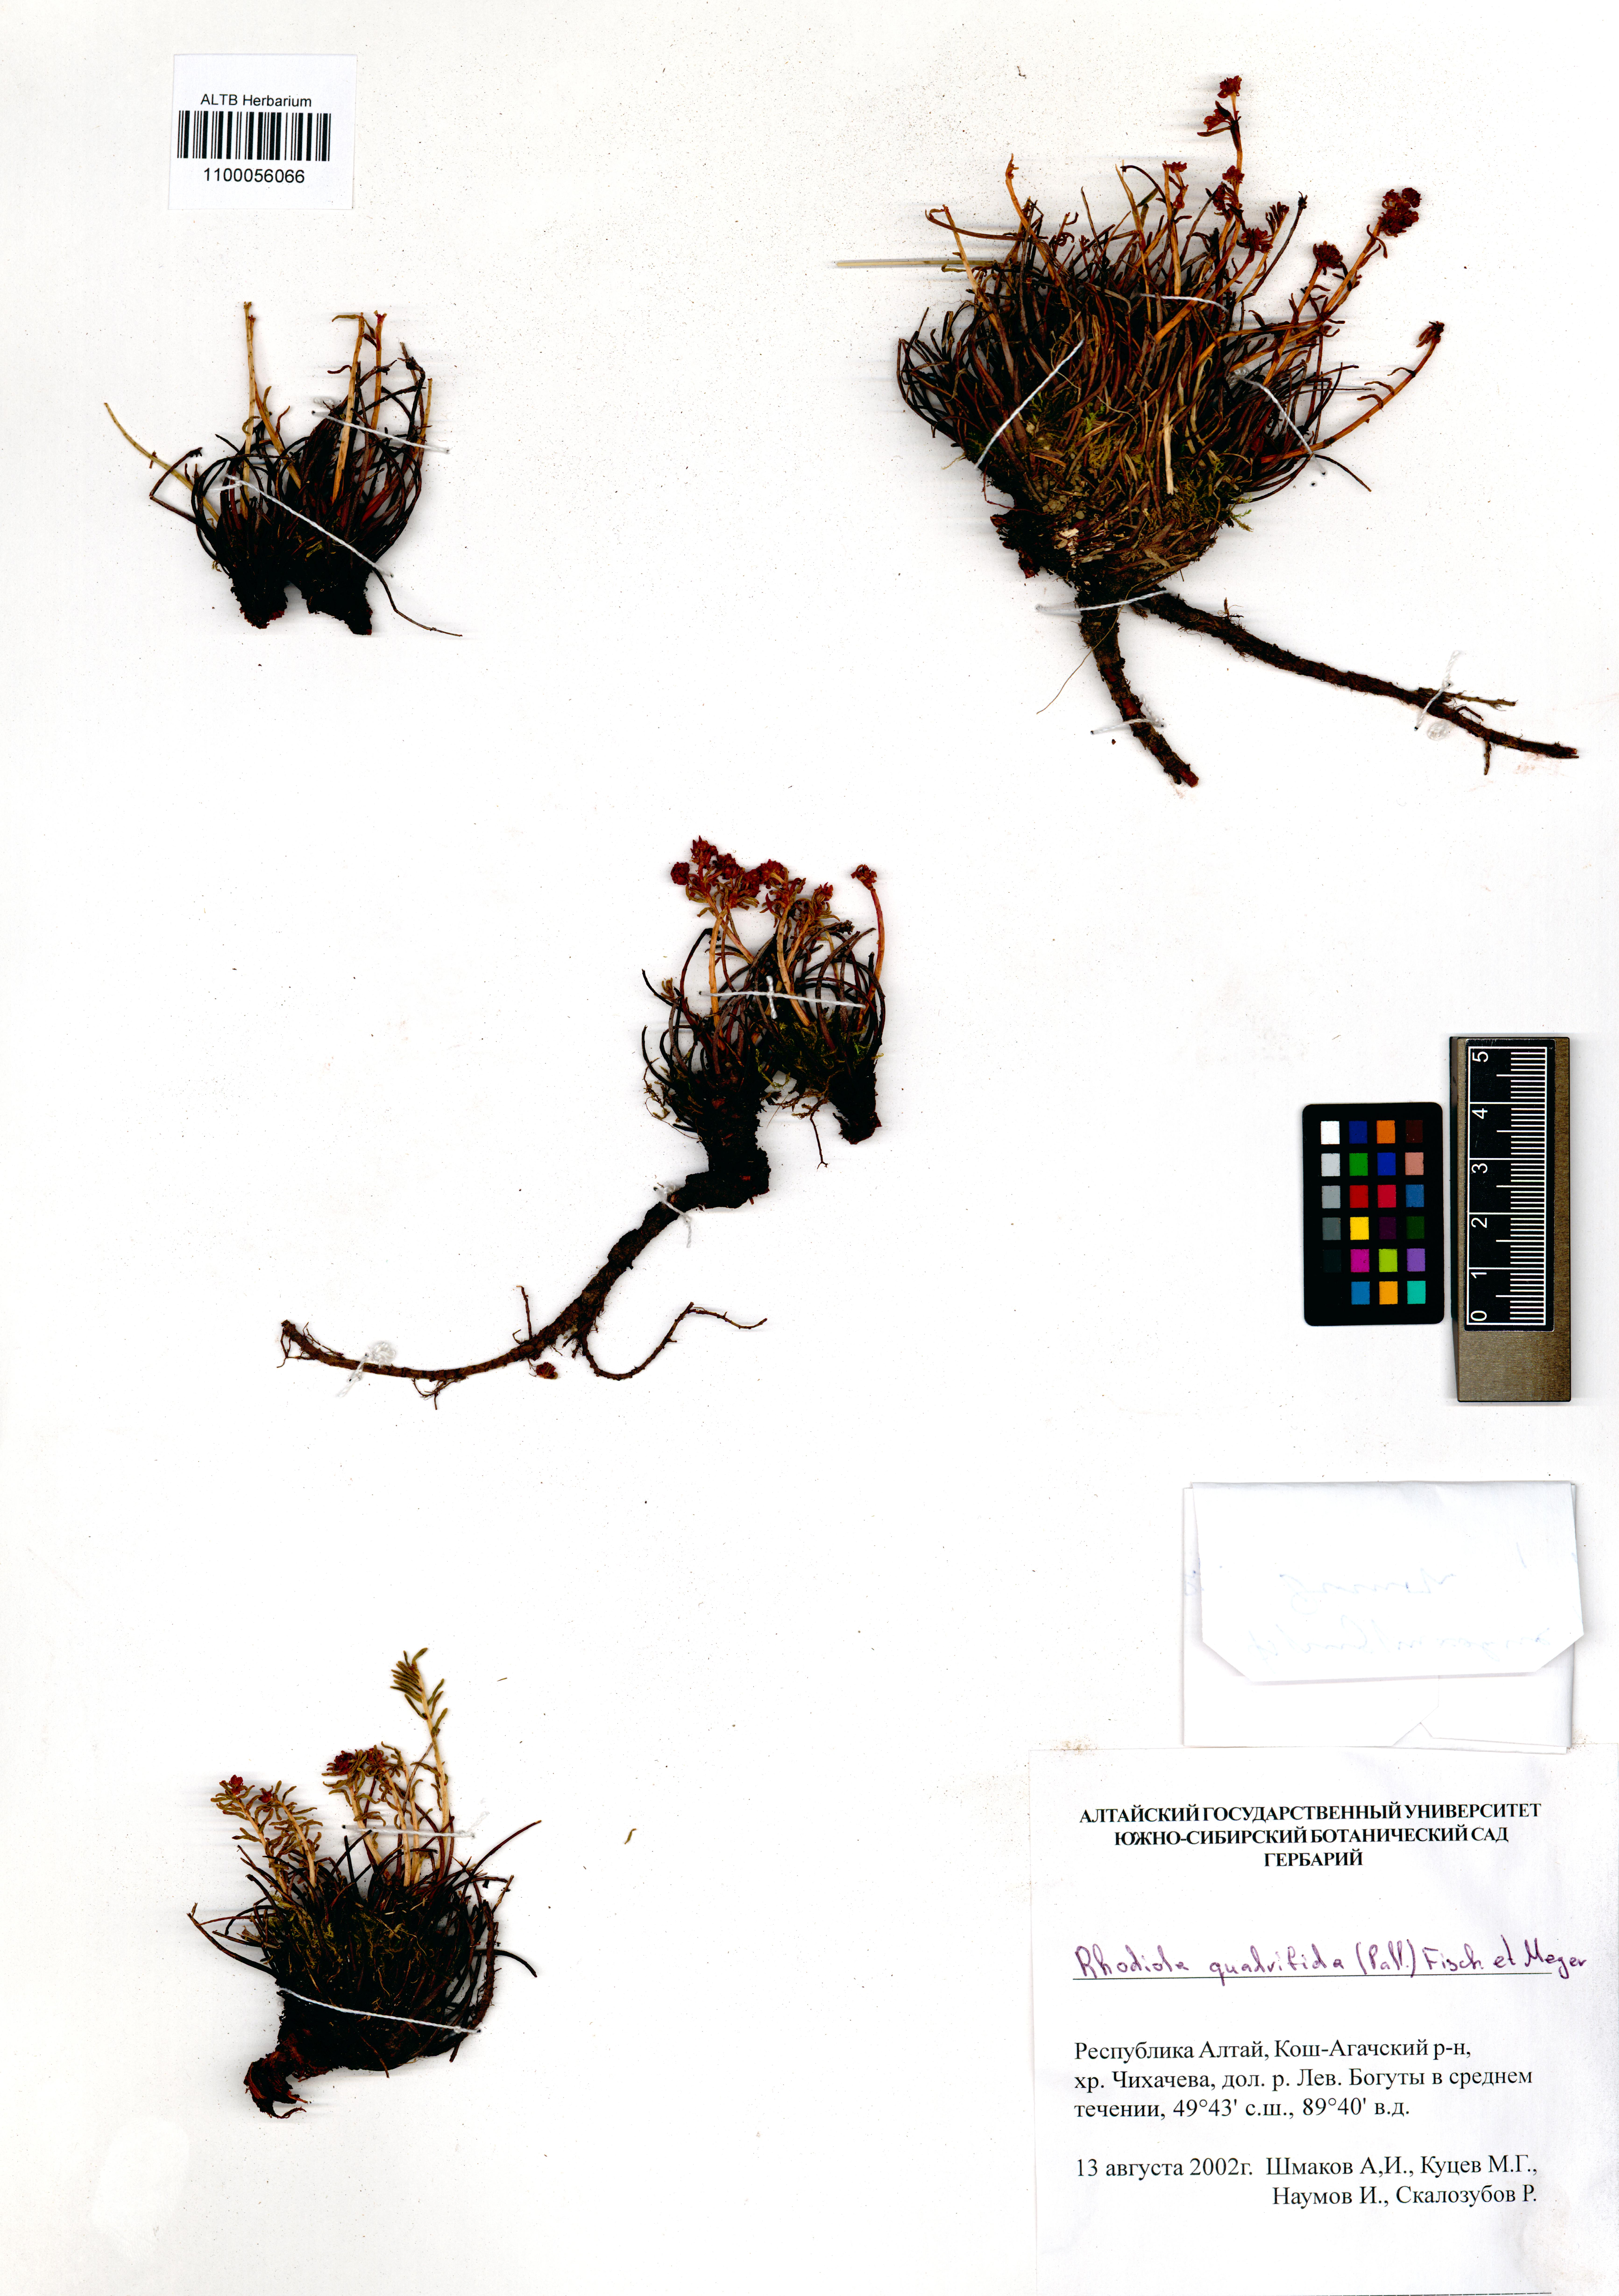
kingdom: Plantae
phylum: Tracheophyta
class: Magnoliopsida
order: Saxifragales
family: Crassulaceae
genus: Rhodiola
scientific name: Rhodiola quadrifida
